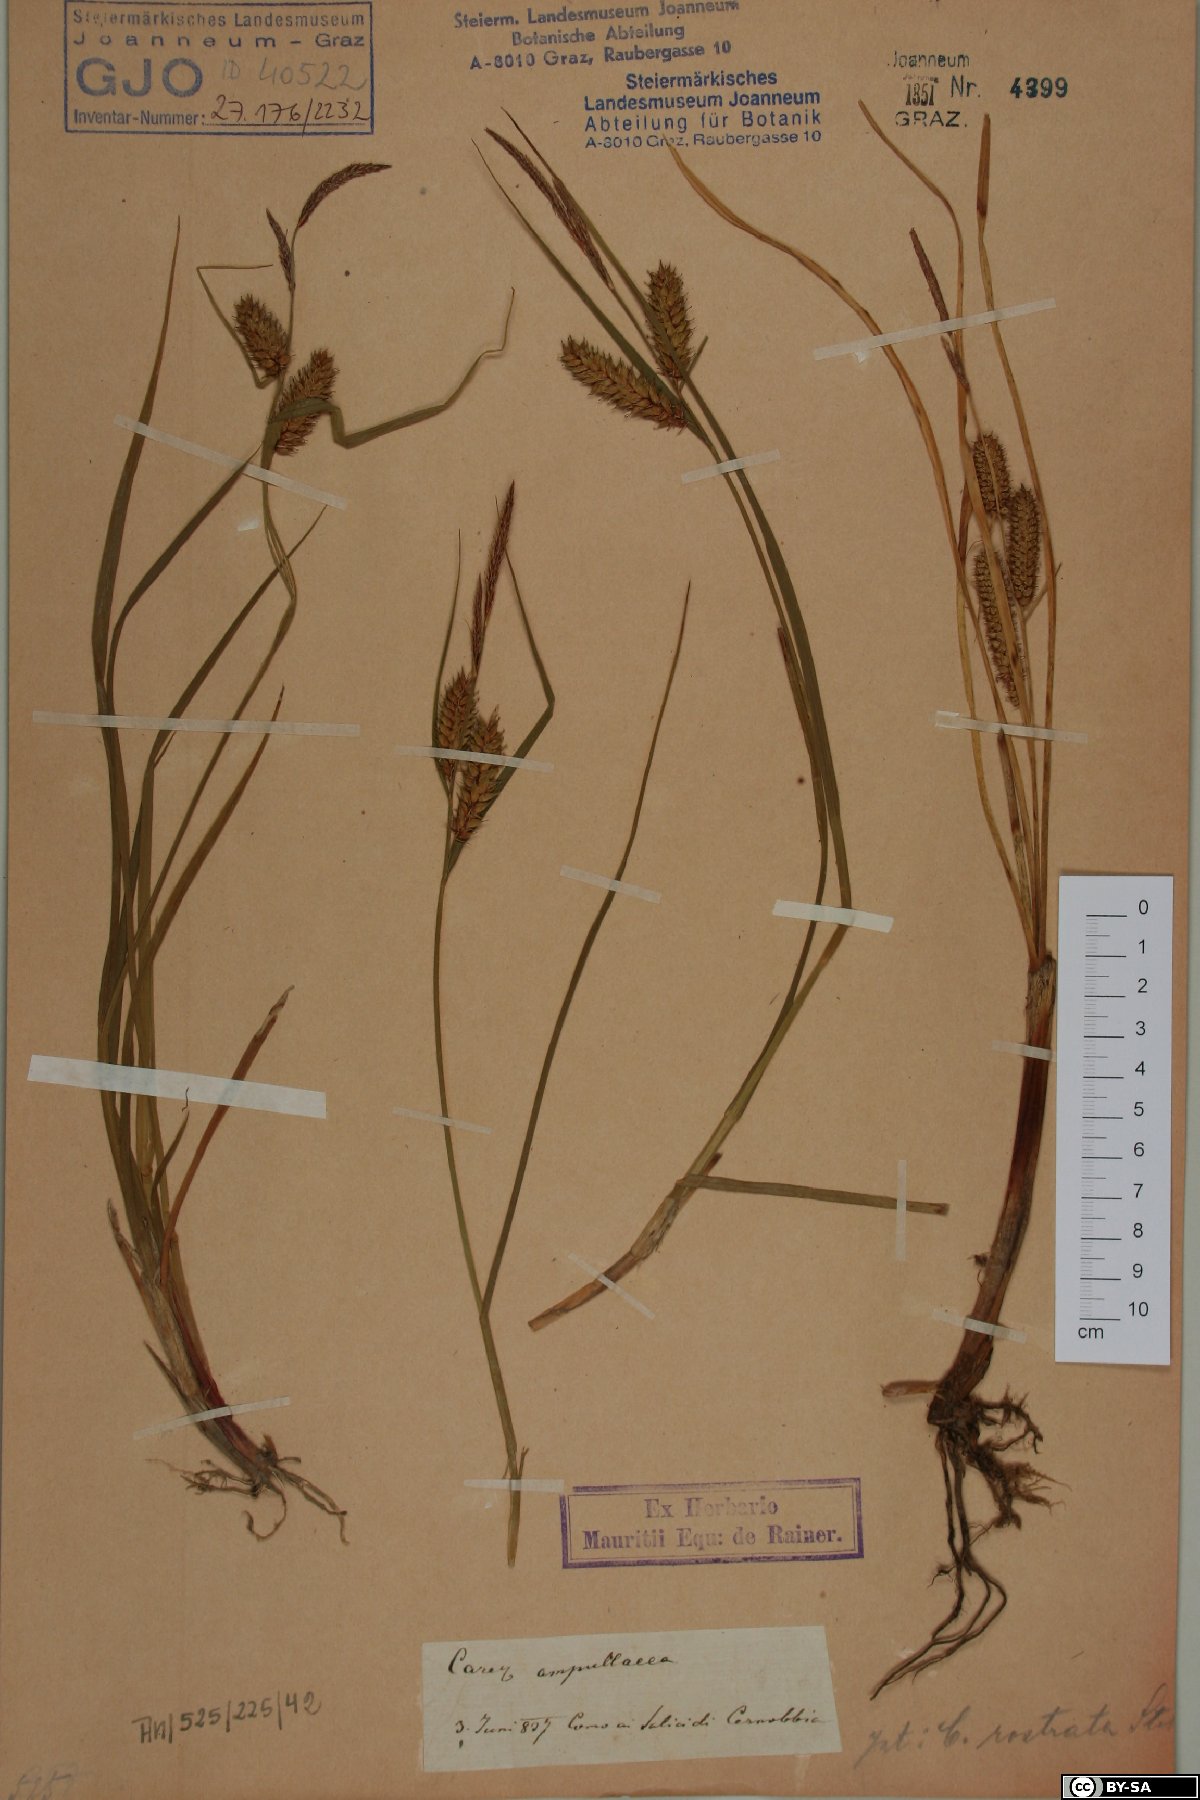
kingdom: Plantae
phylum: Tracheophyta
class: Liliopsida
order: Poales
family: Cyperaceae
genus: Carex
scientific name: Carex rostrata
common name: Bottle sedge
